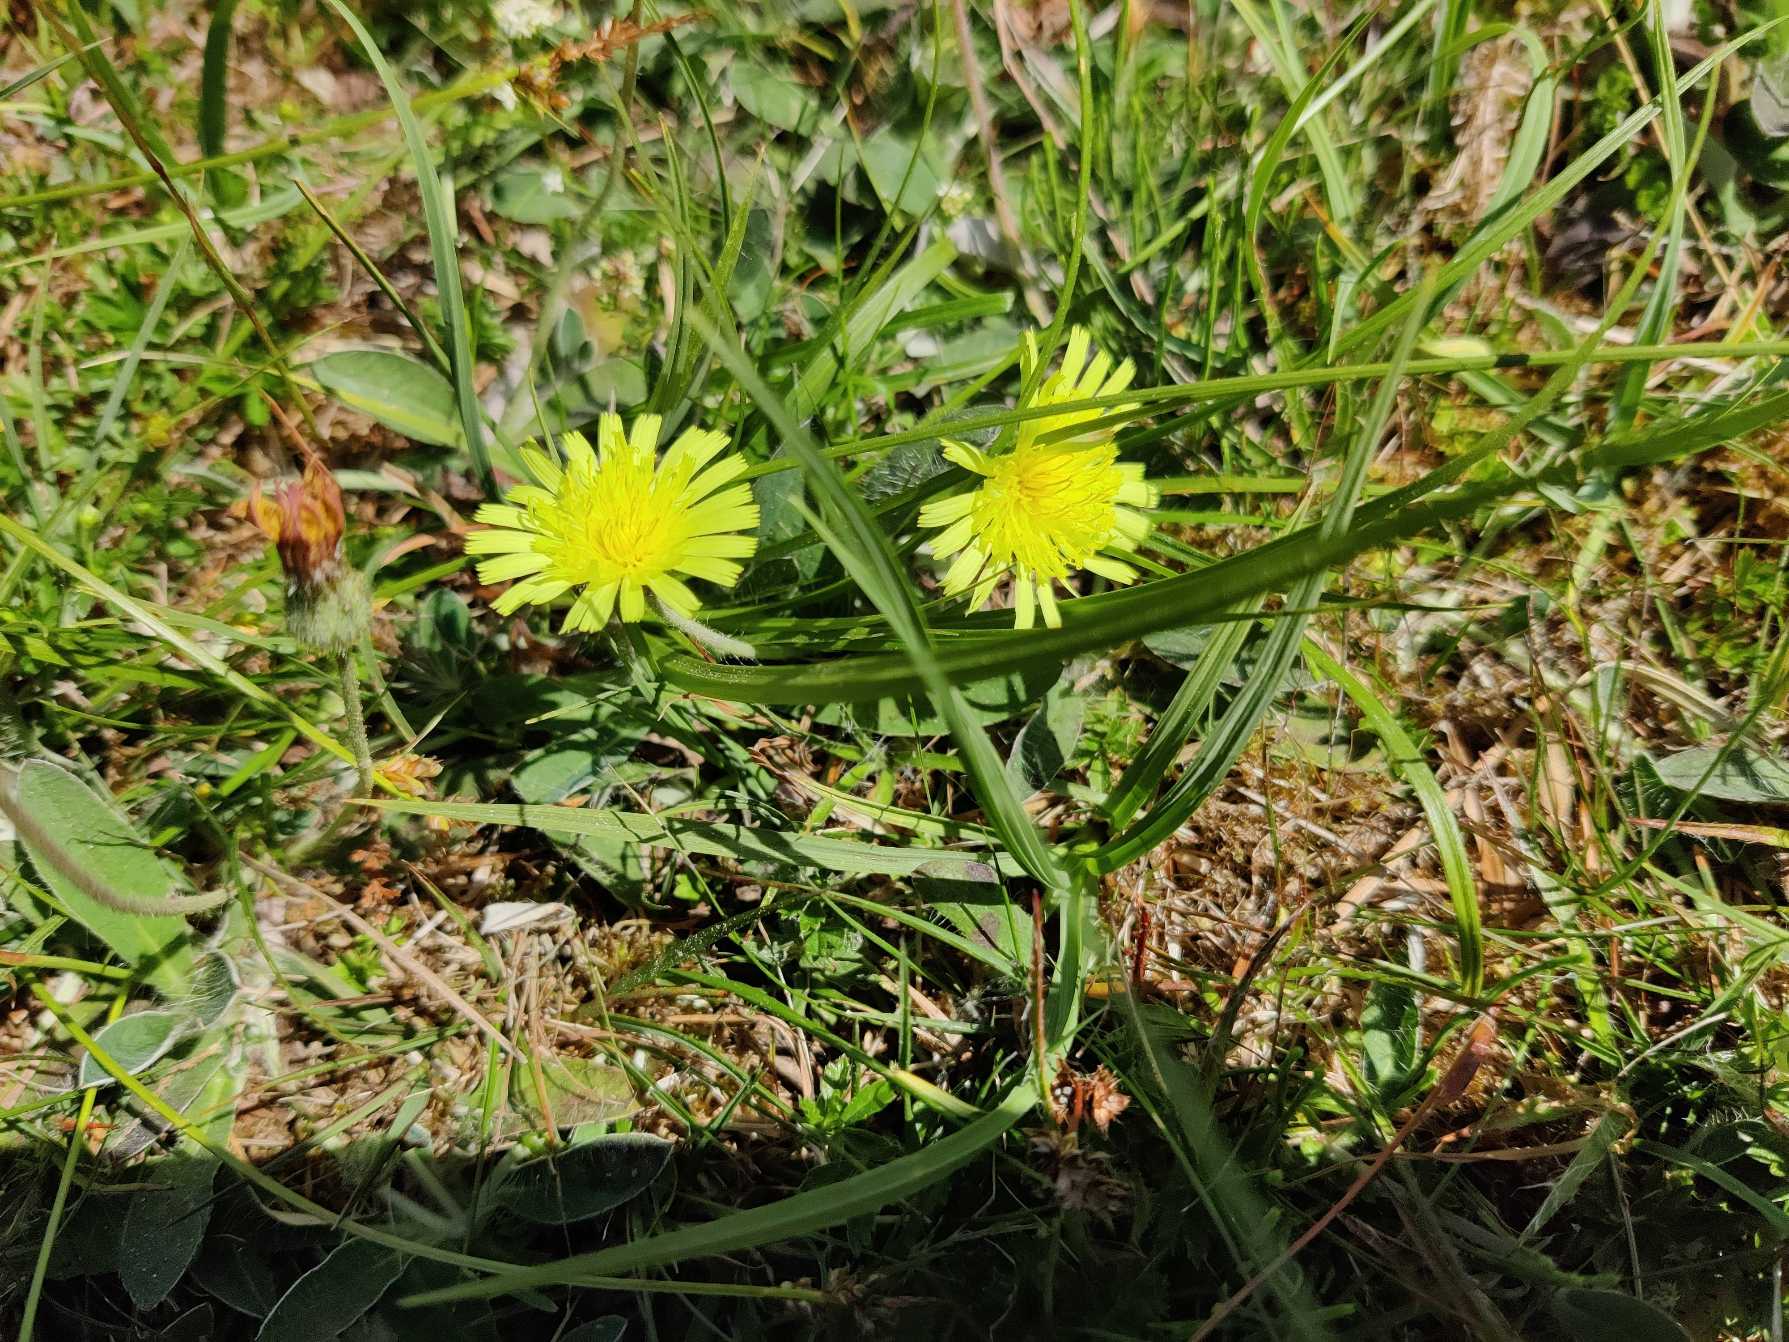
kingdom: Plantae
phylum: Tracheophyta
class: Magnoliopsida
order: Asterales
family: Asteraceae
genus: Pilosella
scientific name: Pilosella officinarum
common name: Håret høgeurt
